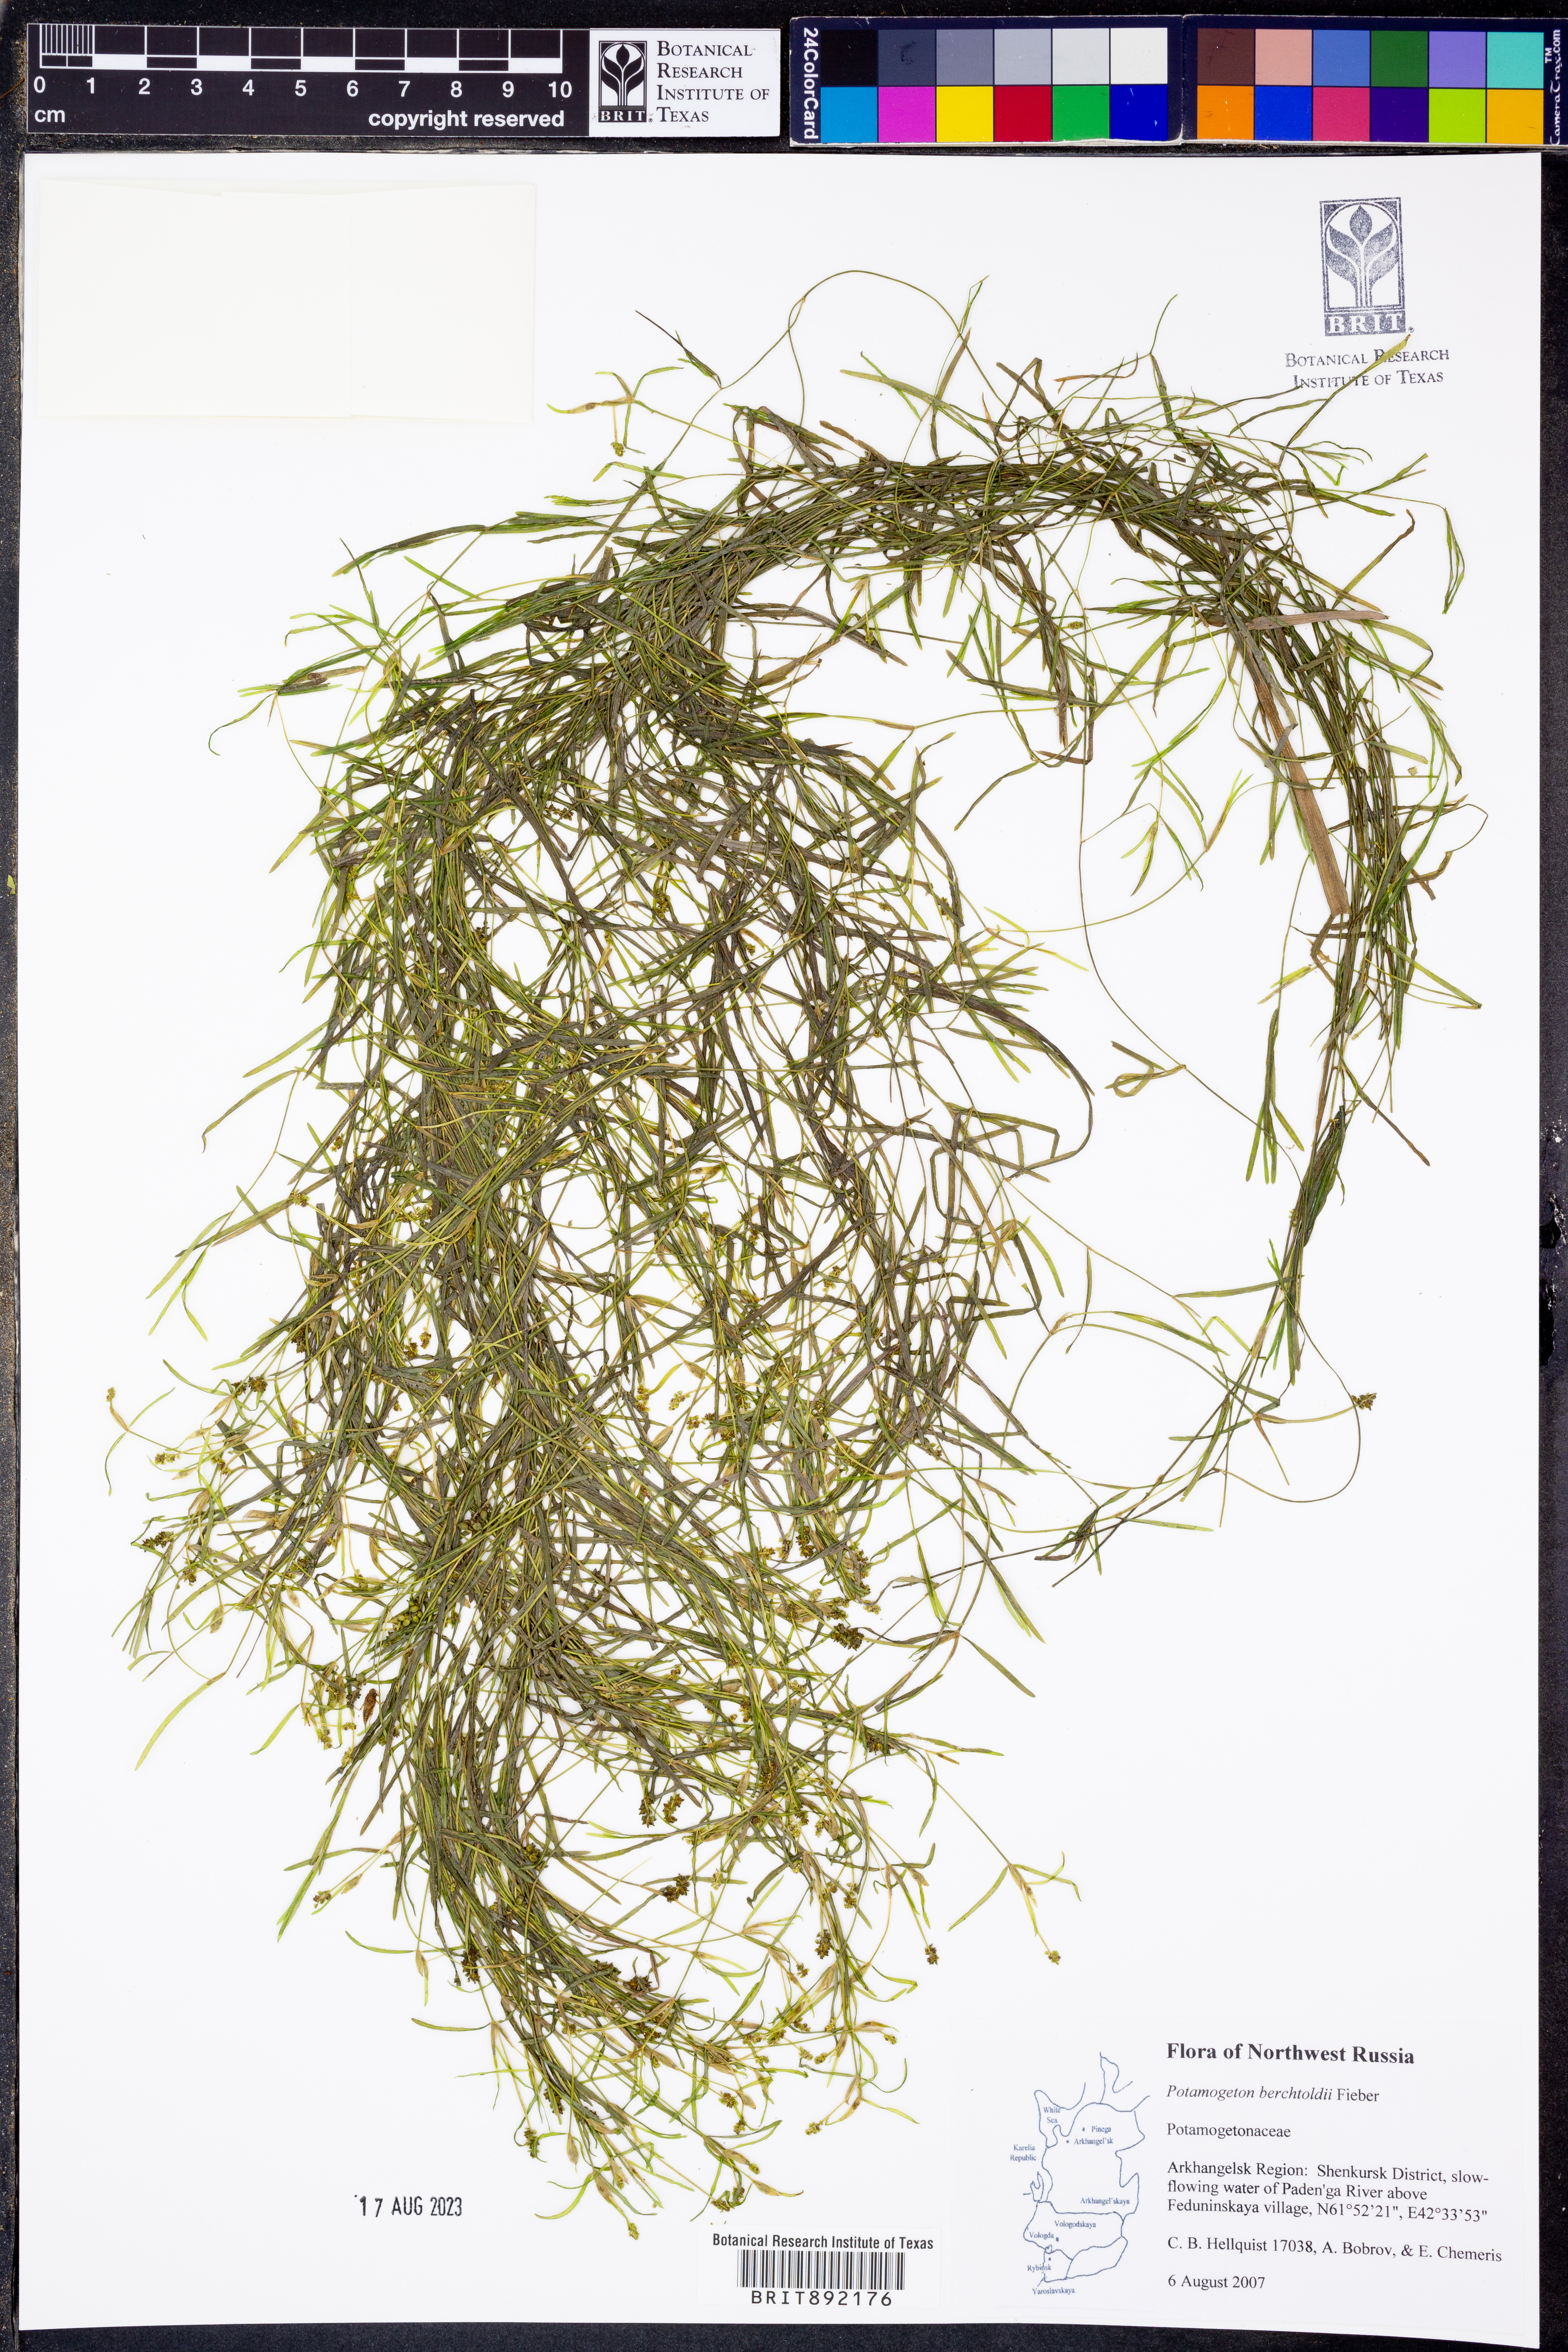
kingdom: Plantae
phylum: Tracheophyta
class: Liliopsida
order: Alismatales
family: Potamogetonaceae
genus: Potamogeton
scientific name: Potamogeton berchtoldii
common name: Small pondweed
